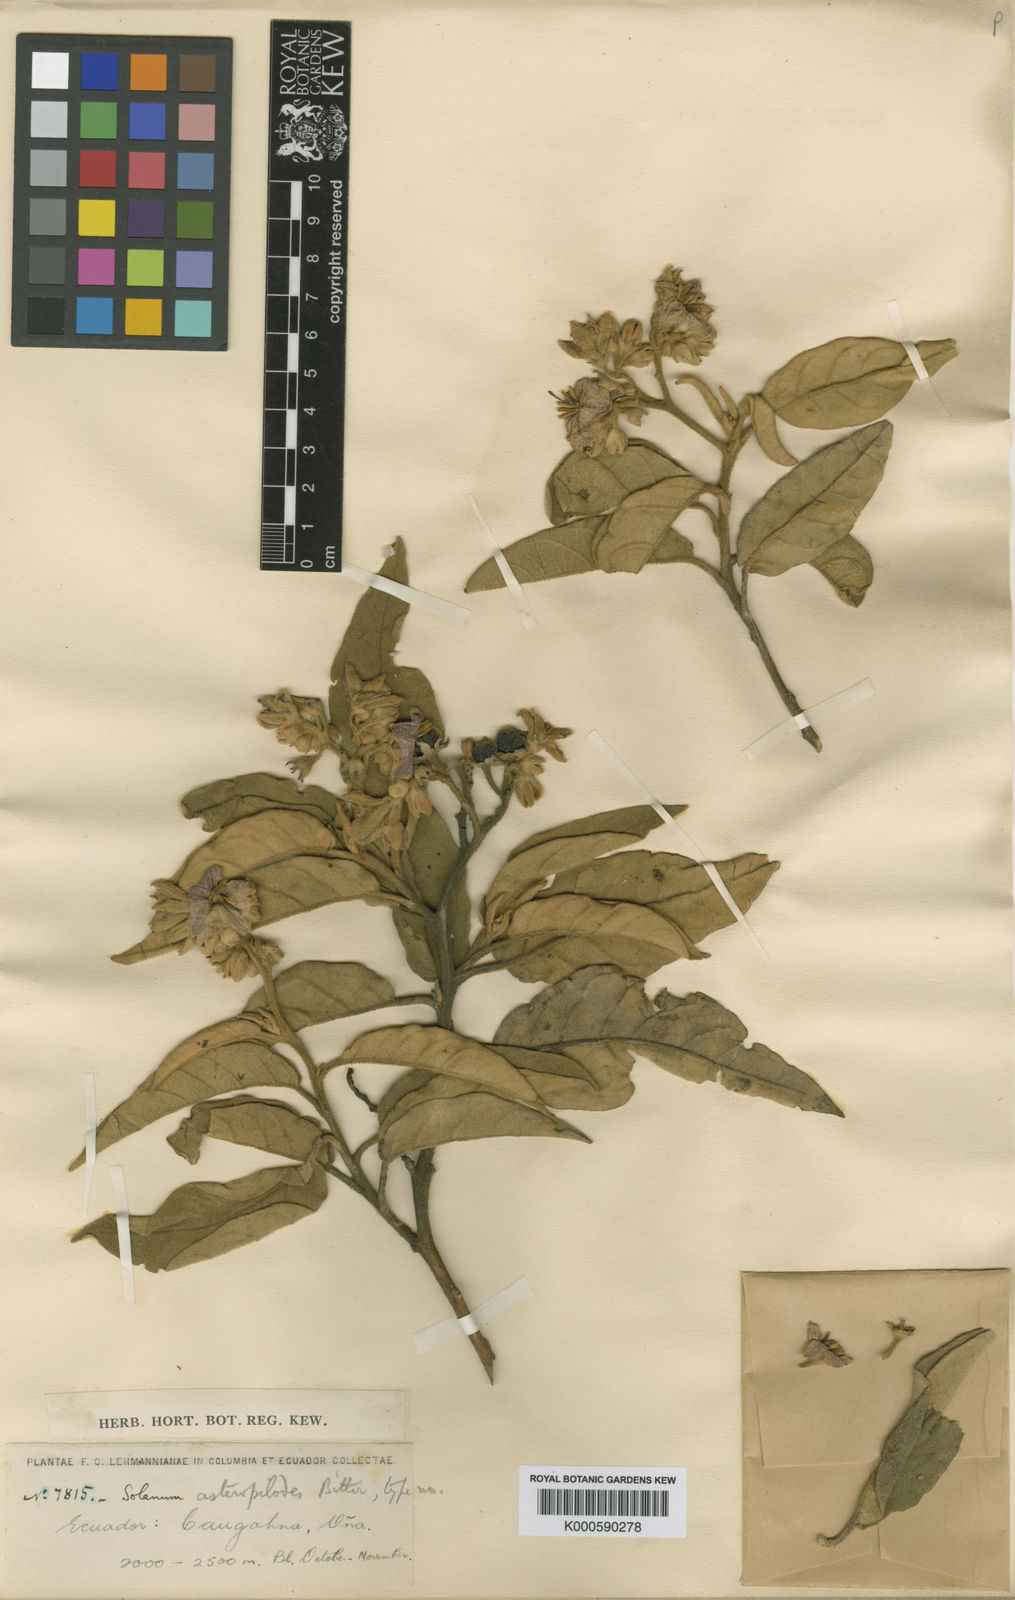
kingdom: Plantae
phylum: Tracheophyta
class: Magnoliopsida
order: Solanales
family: Solanaceae
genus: Solanum
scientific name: Solanum asteropilodes
